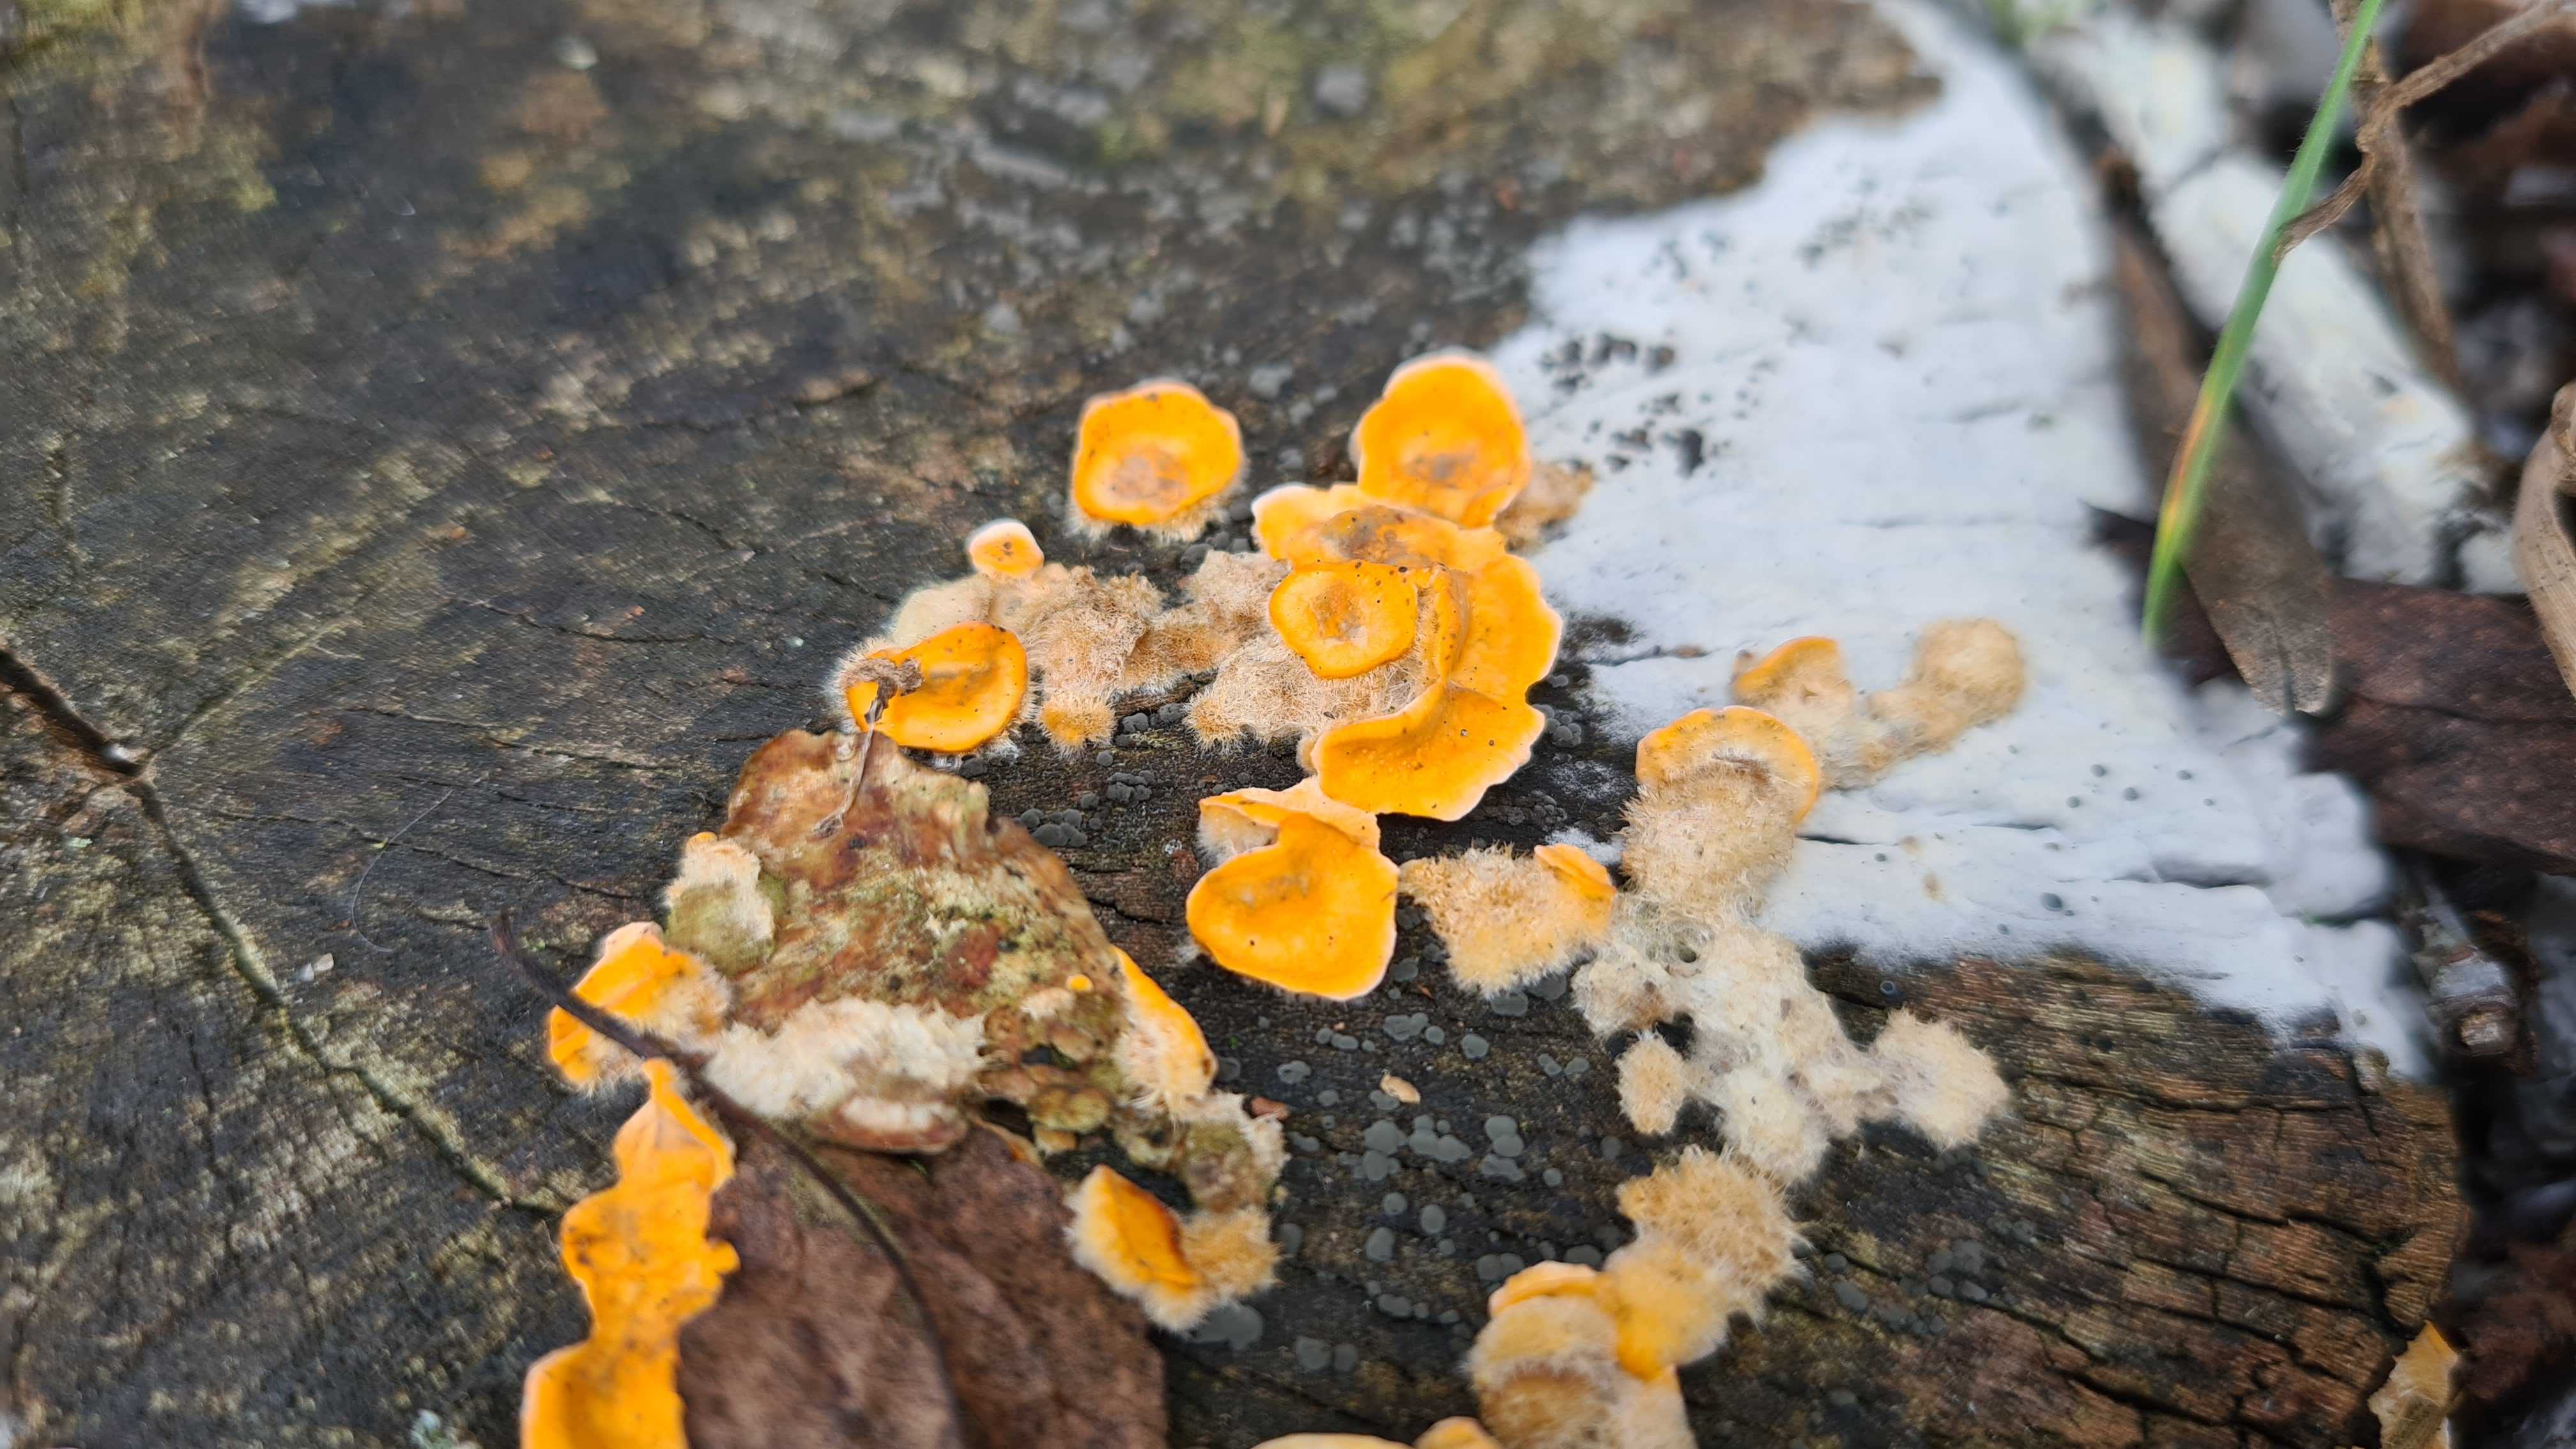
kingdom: Fungi
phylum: Basidiomycota
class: Agaricomycetes
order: Russulales
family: Stereaceae
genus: Stereum
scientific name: Stereum hirsutum
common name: håret lædersvamp
